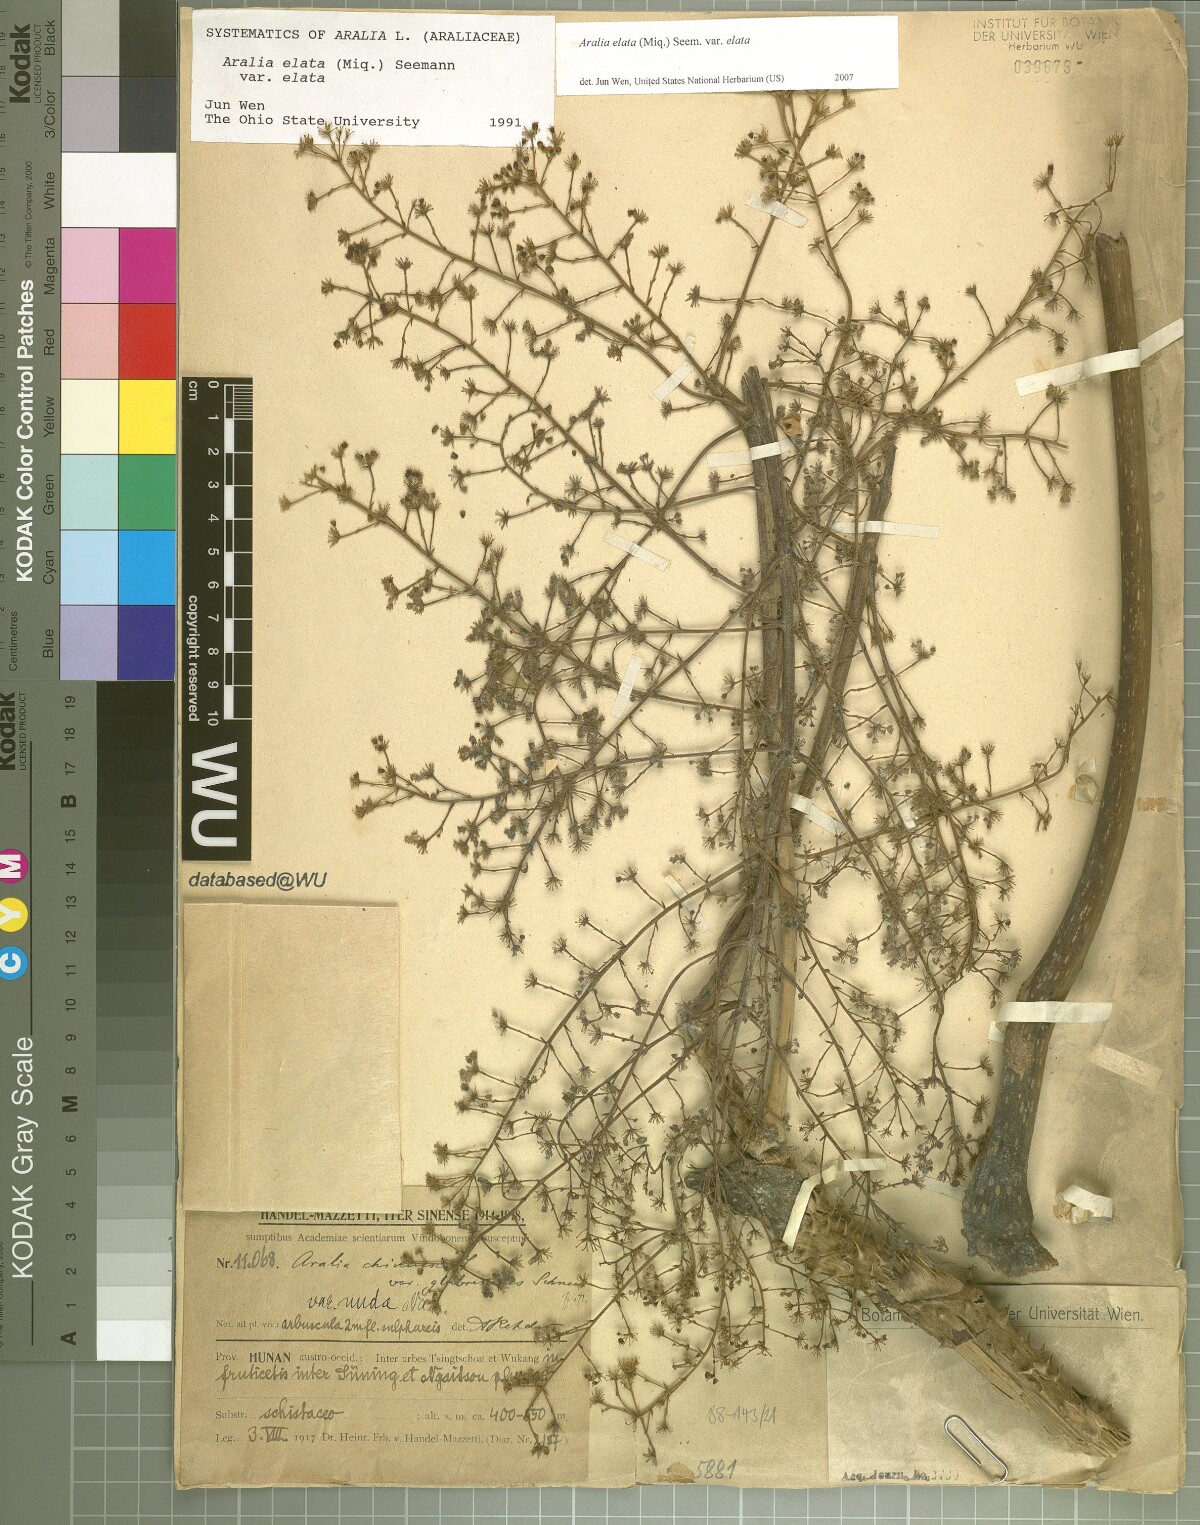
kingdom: Plantae
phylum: Tracheophyta
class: Magnoliopsida
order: Apiales
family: Araliaceae
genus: Aralia
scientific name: Aralia elata
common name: Japanese angelica-tree
